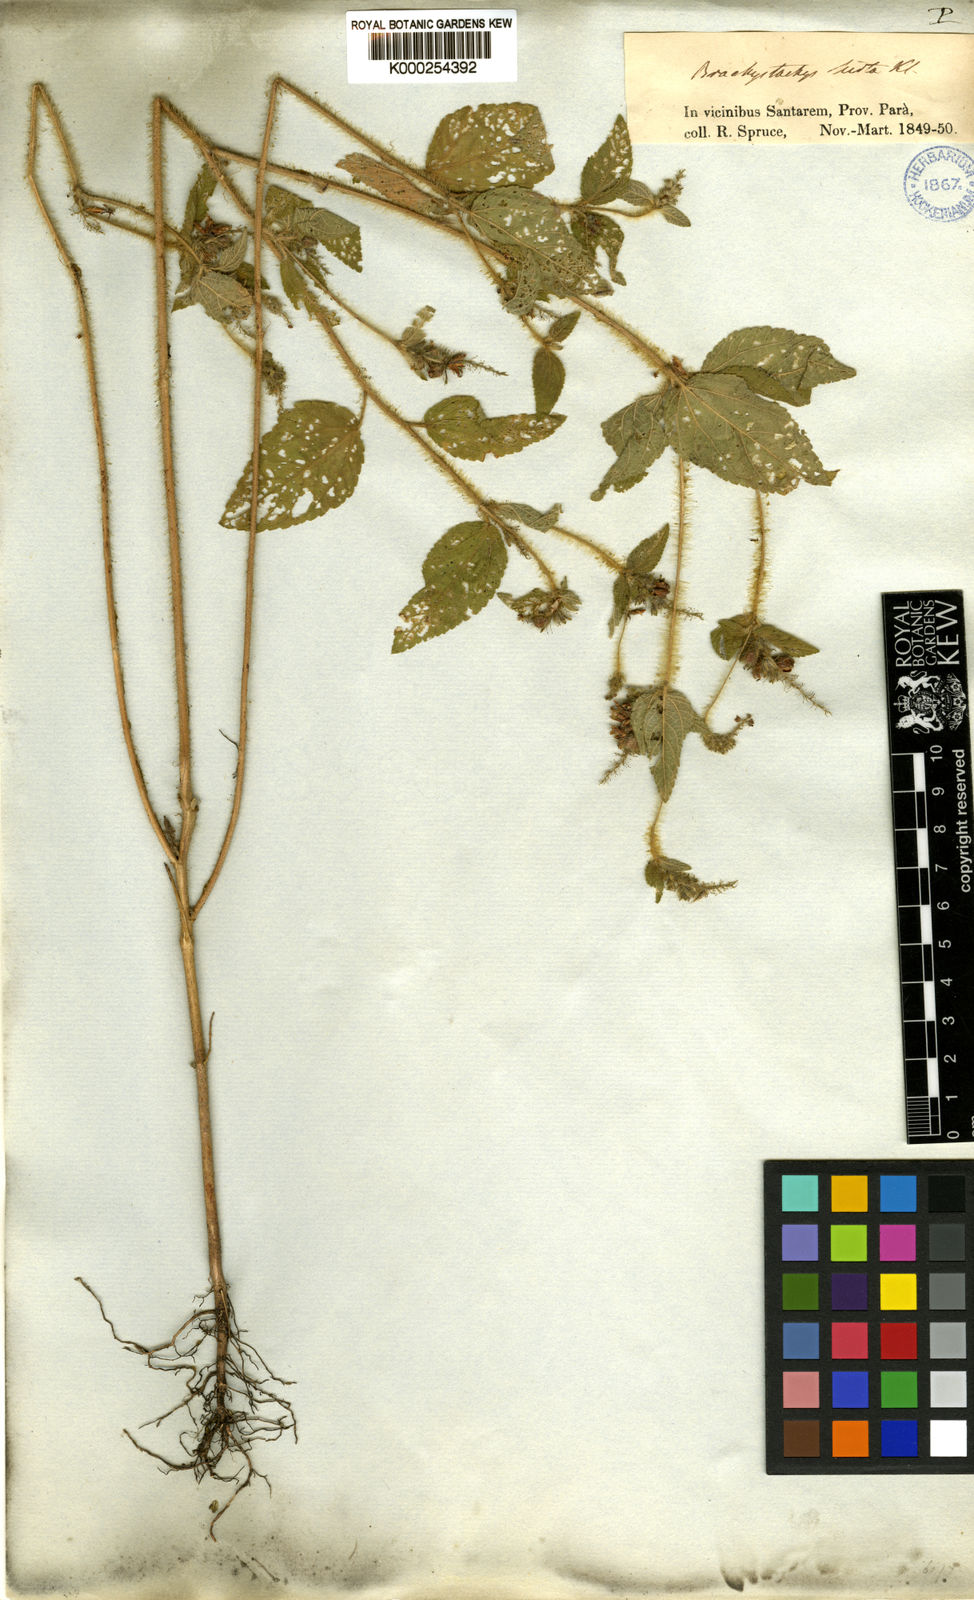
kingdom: Plantae
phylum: Tracheophyta
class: Magnoliopsida
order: Malpighiales
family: Euphorbiaceae
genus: Croton
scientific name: Croton glandulosus
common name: Tropic croton
